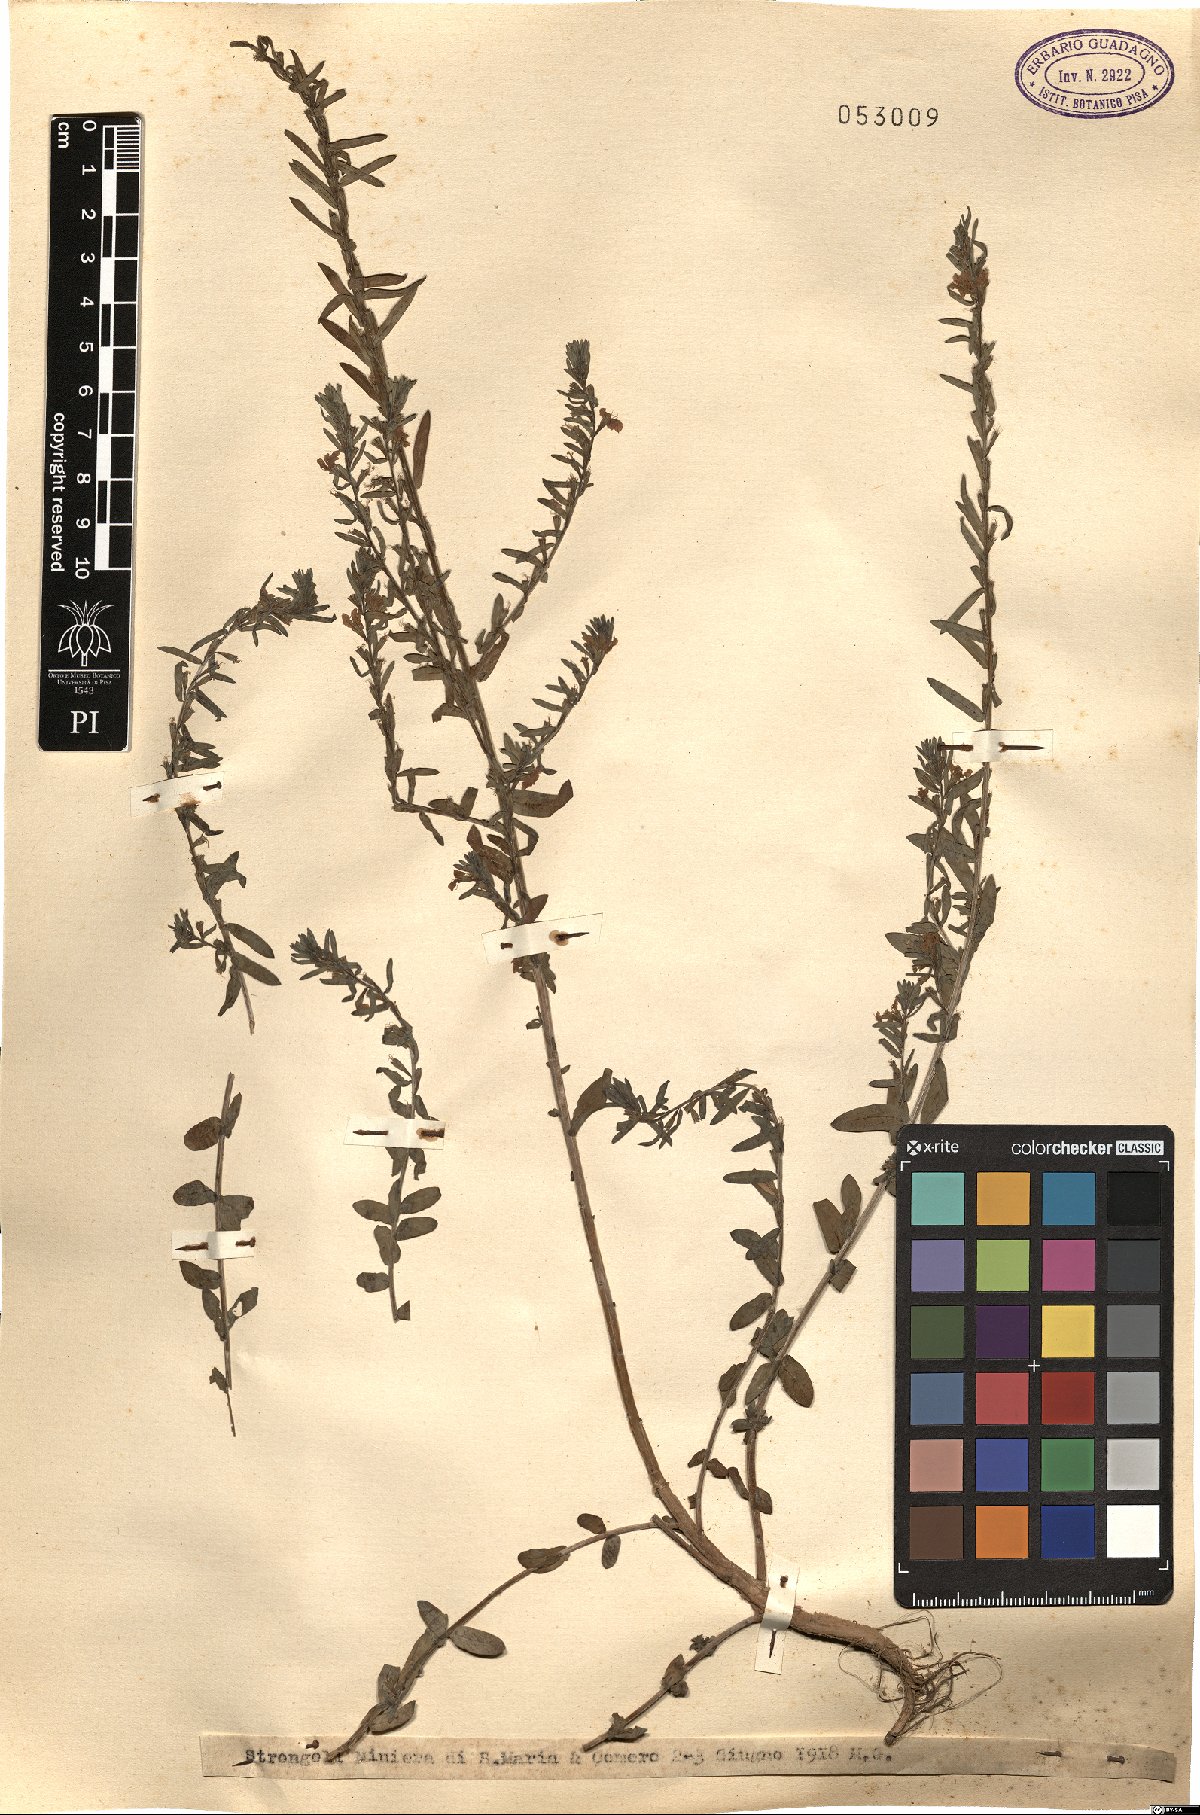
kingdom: Plantae
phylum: Tracheophyta
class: Magnoliopsida
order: Myrtales
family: Lythraceae
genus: Lythrum
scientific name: Lythrum
